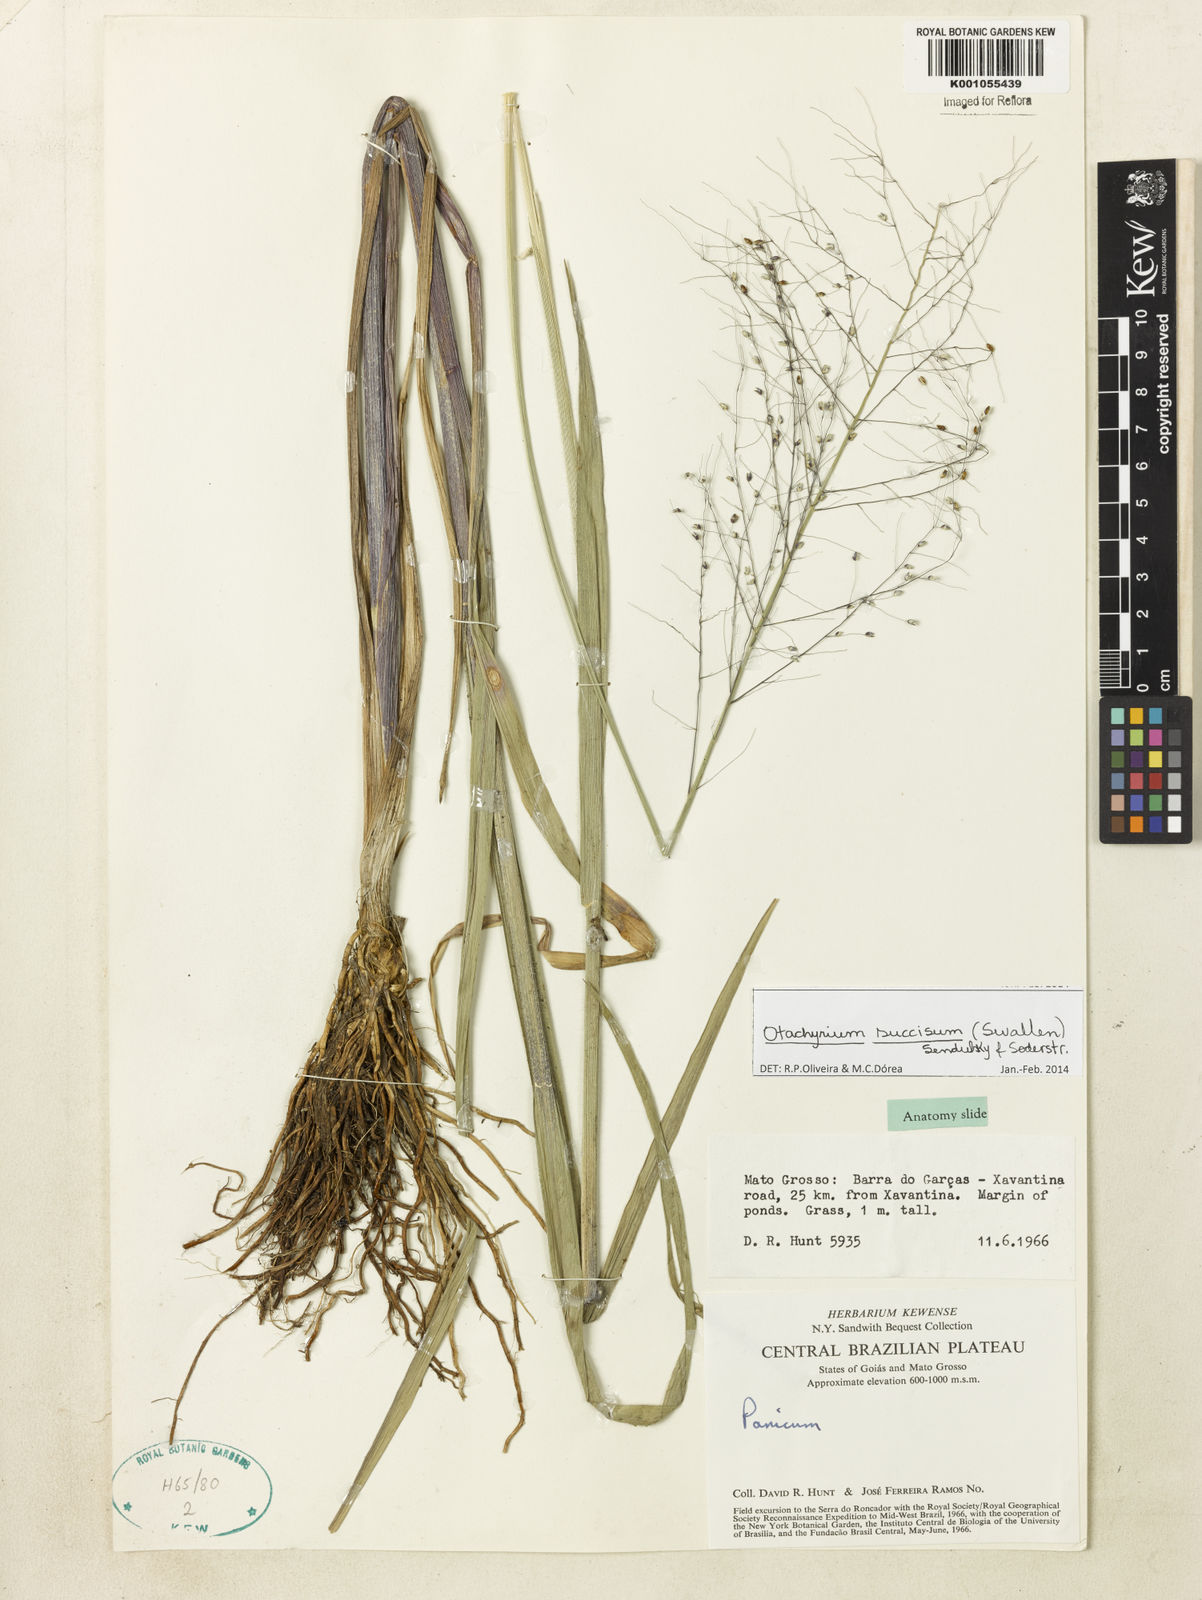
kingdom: Plantae
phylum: Tracheophyta
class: Liliopsida
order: Poales
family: Poaceae
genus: Otachyrium
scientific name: Otachyrium inaequale
